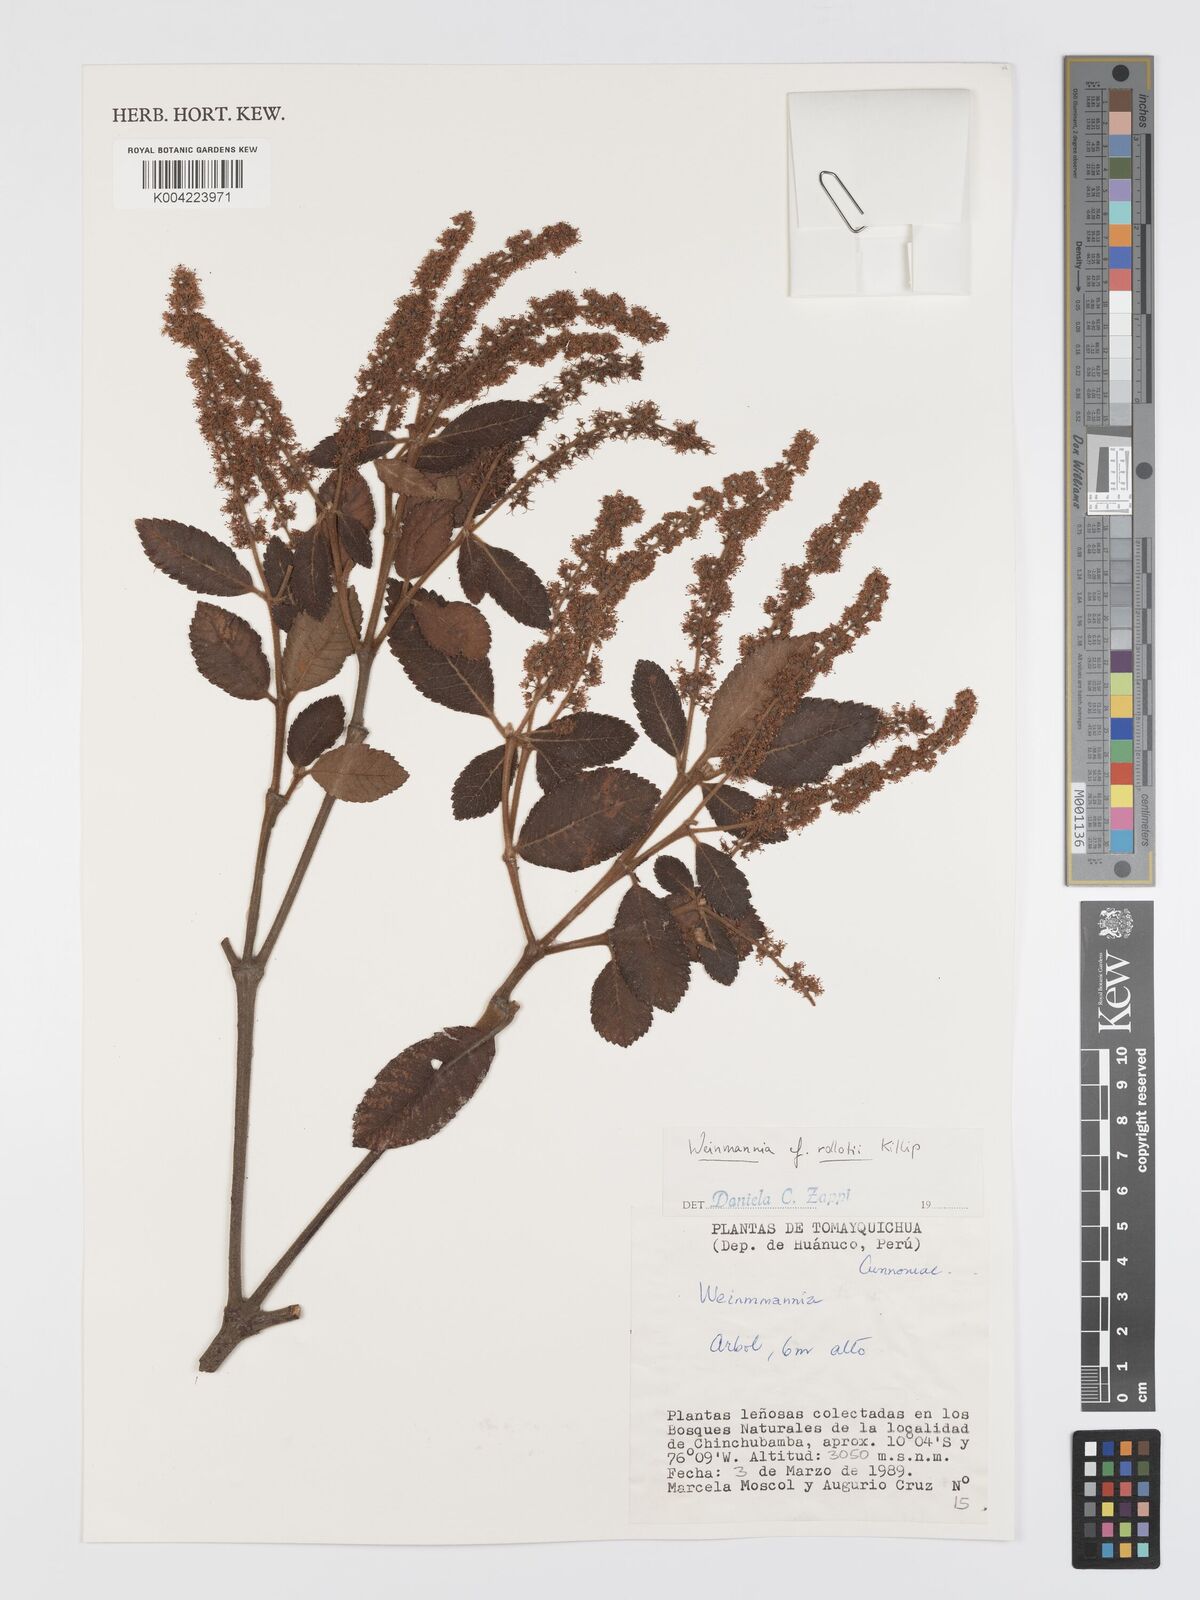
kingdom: Plantae
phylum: Tracheophyta
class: Magnoliopsida
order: Oxalidales
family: Cunoniaceae
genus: Weinmannia
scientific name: Weinmannia rollottii
